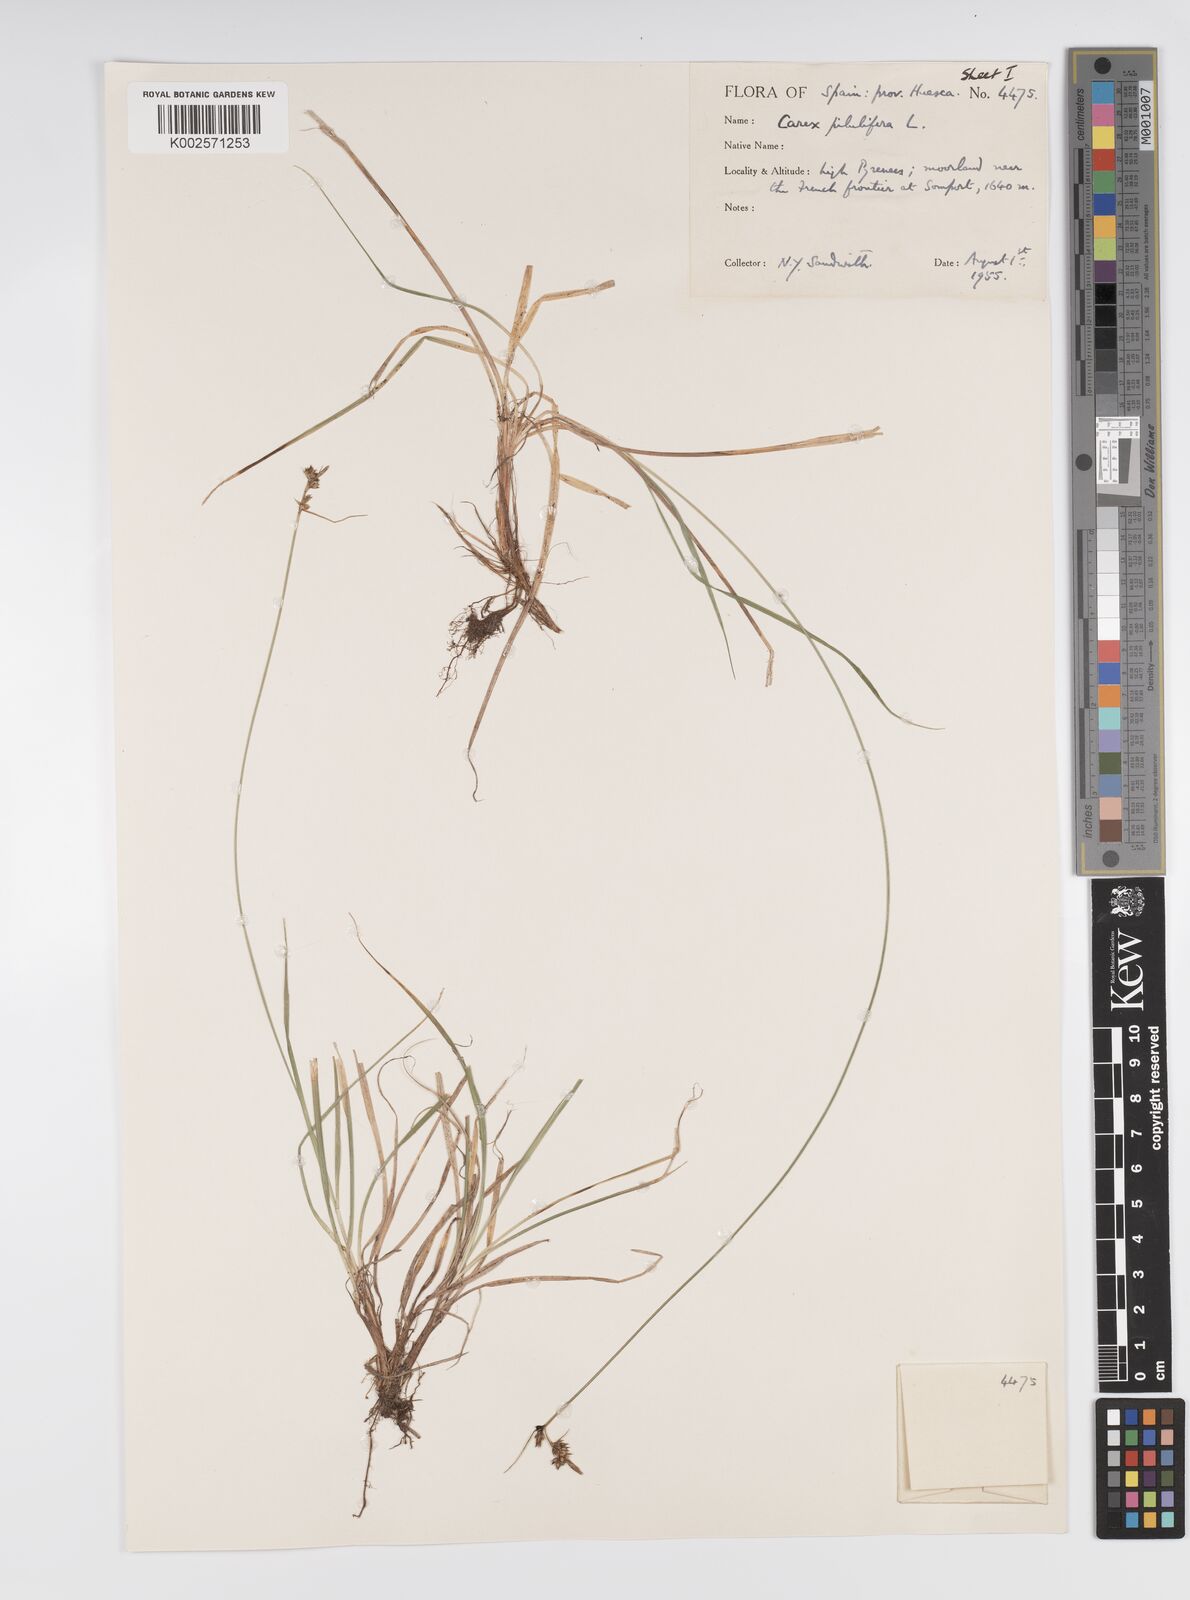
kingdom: Plantae
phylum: Tracheophyta
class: Liliopsida
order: Poales
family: Cyperaceae
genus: Carex
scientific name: Carex pilulifera
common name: Pill sedge
